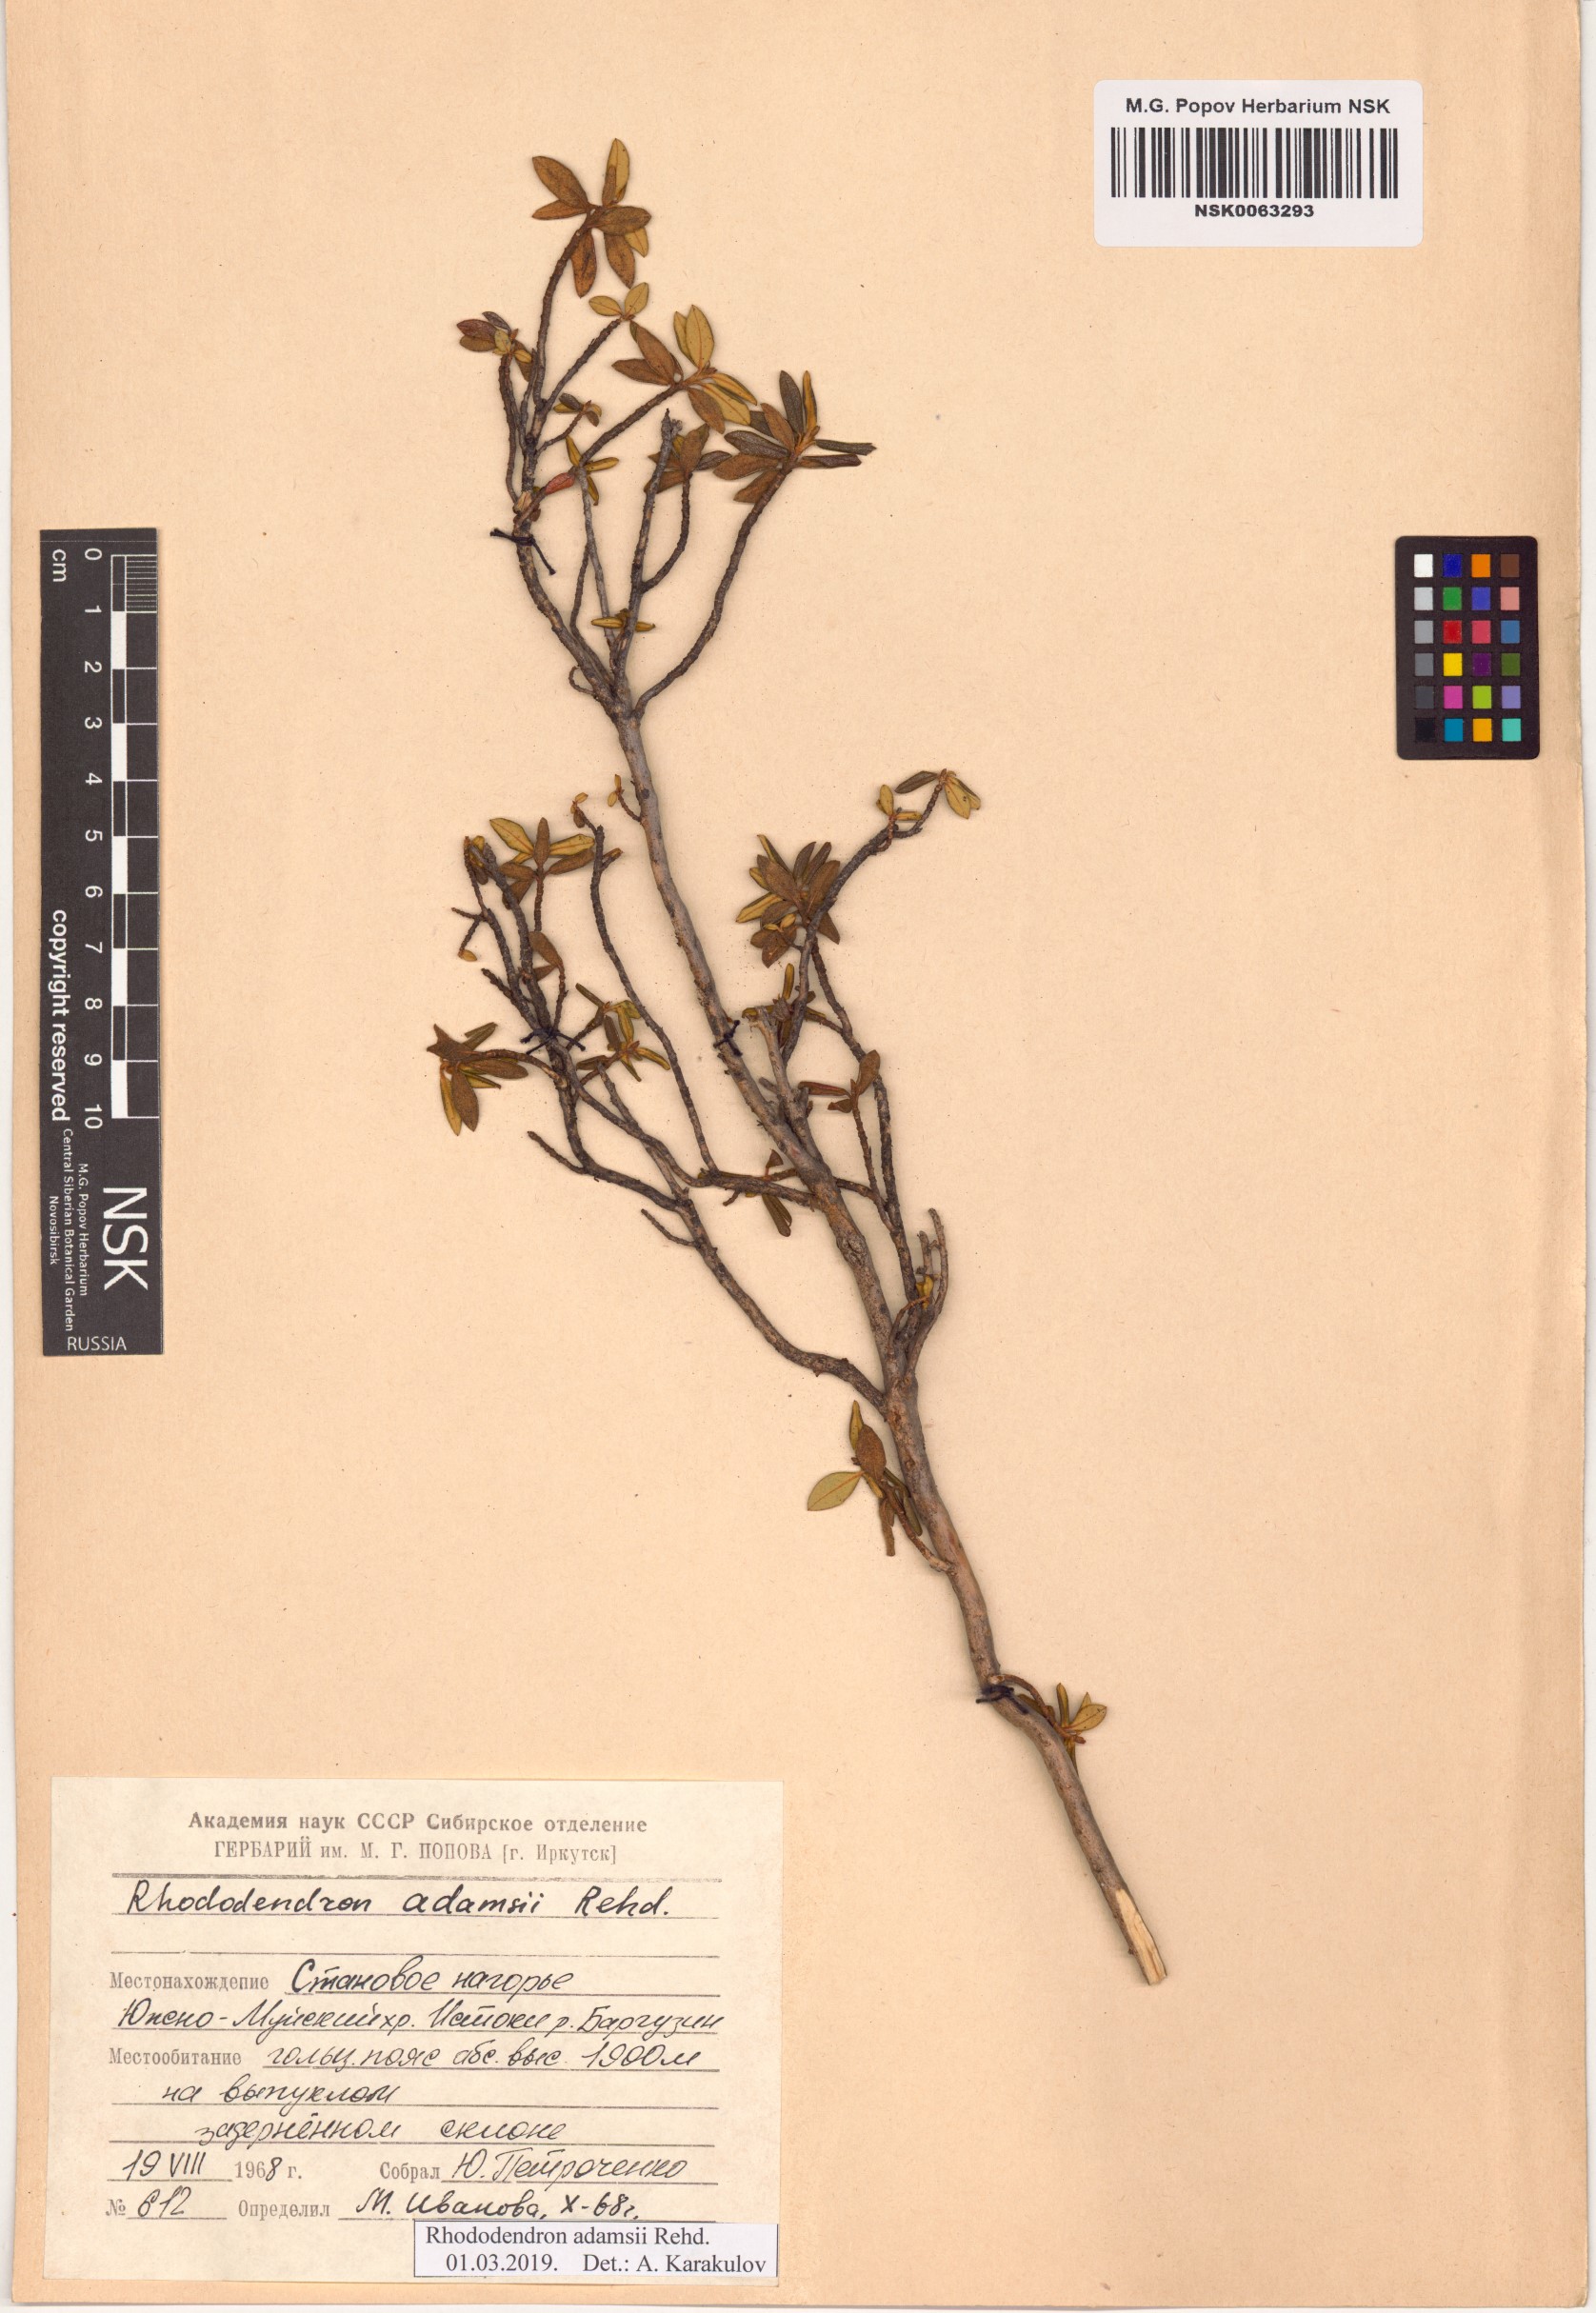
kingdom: Plantae
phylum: Tracheophyta
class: Magnoliopsida
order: Ericales
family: Ericaceae
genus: Rhododendron
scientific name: Rhododendron adamsii
